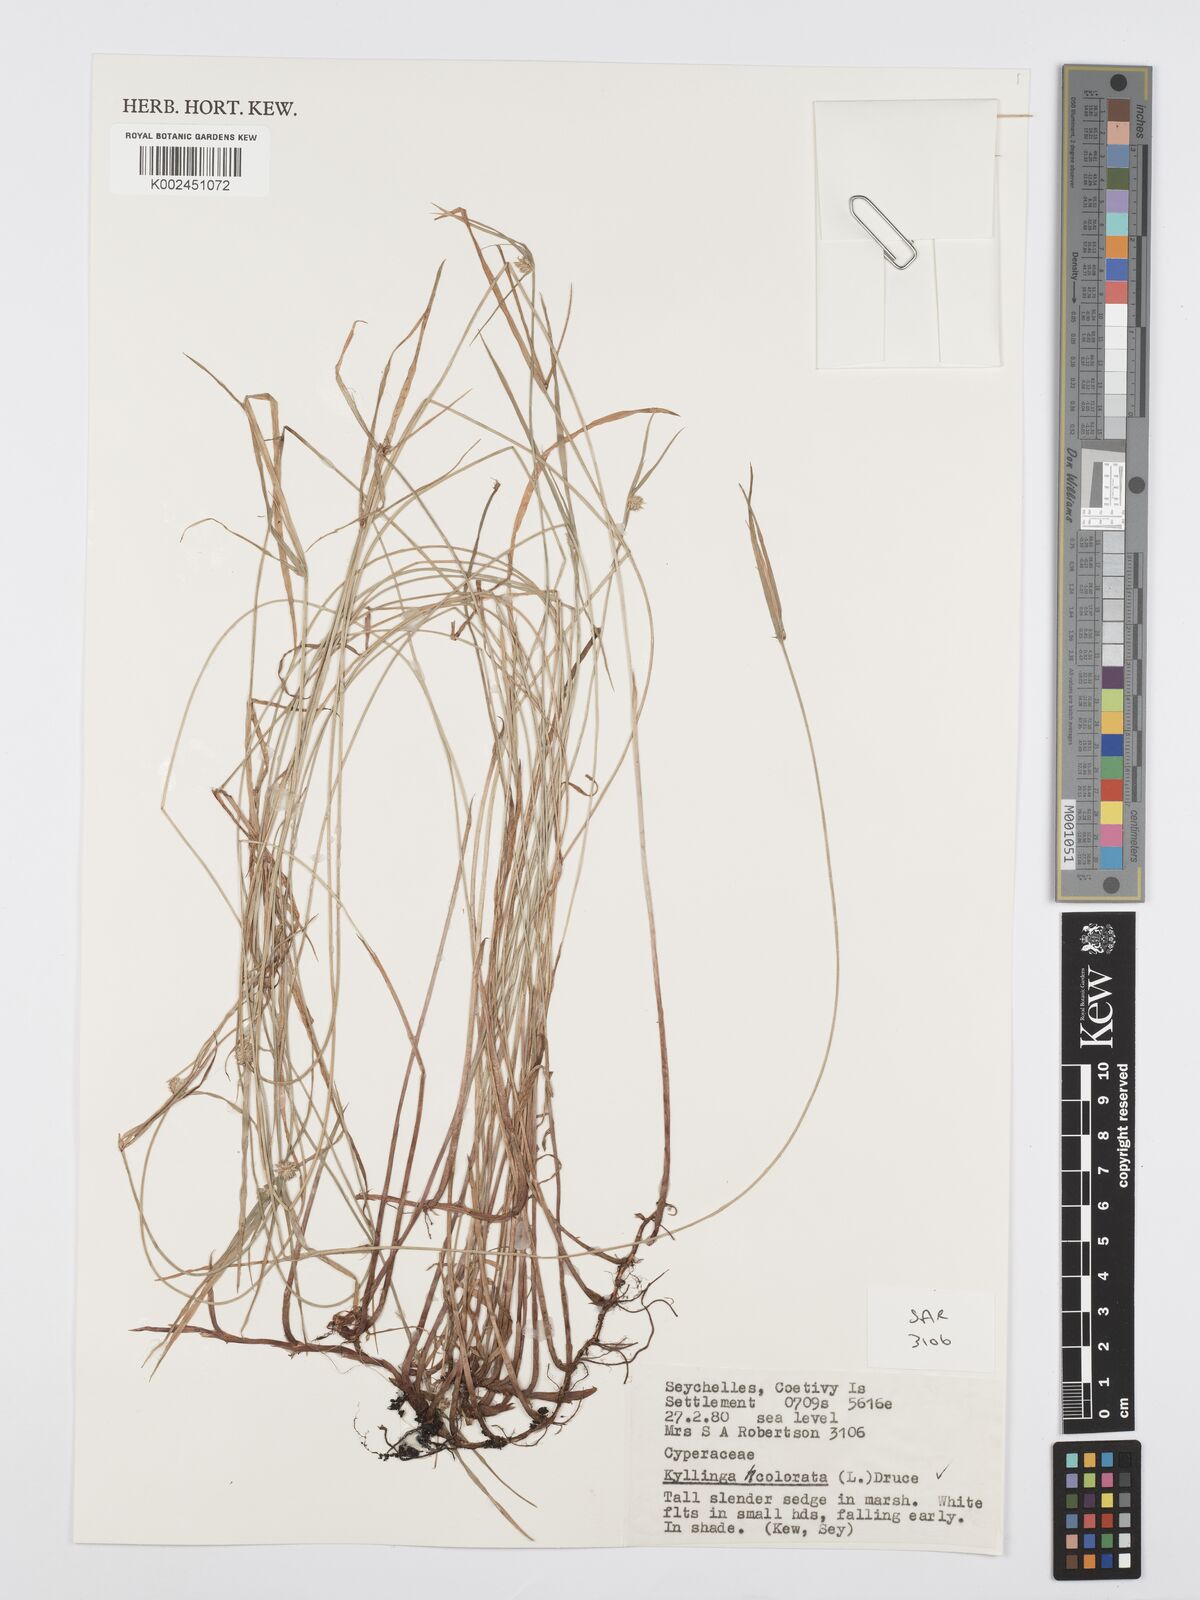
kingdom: Plantae
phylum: Tracheophyta
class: Liliopsida
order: Poales
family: Cyperaceae
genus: Cyperus
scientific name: Cyperus brevifolius
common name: Globe kyllinga
